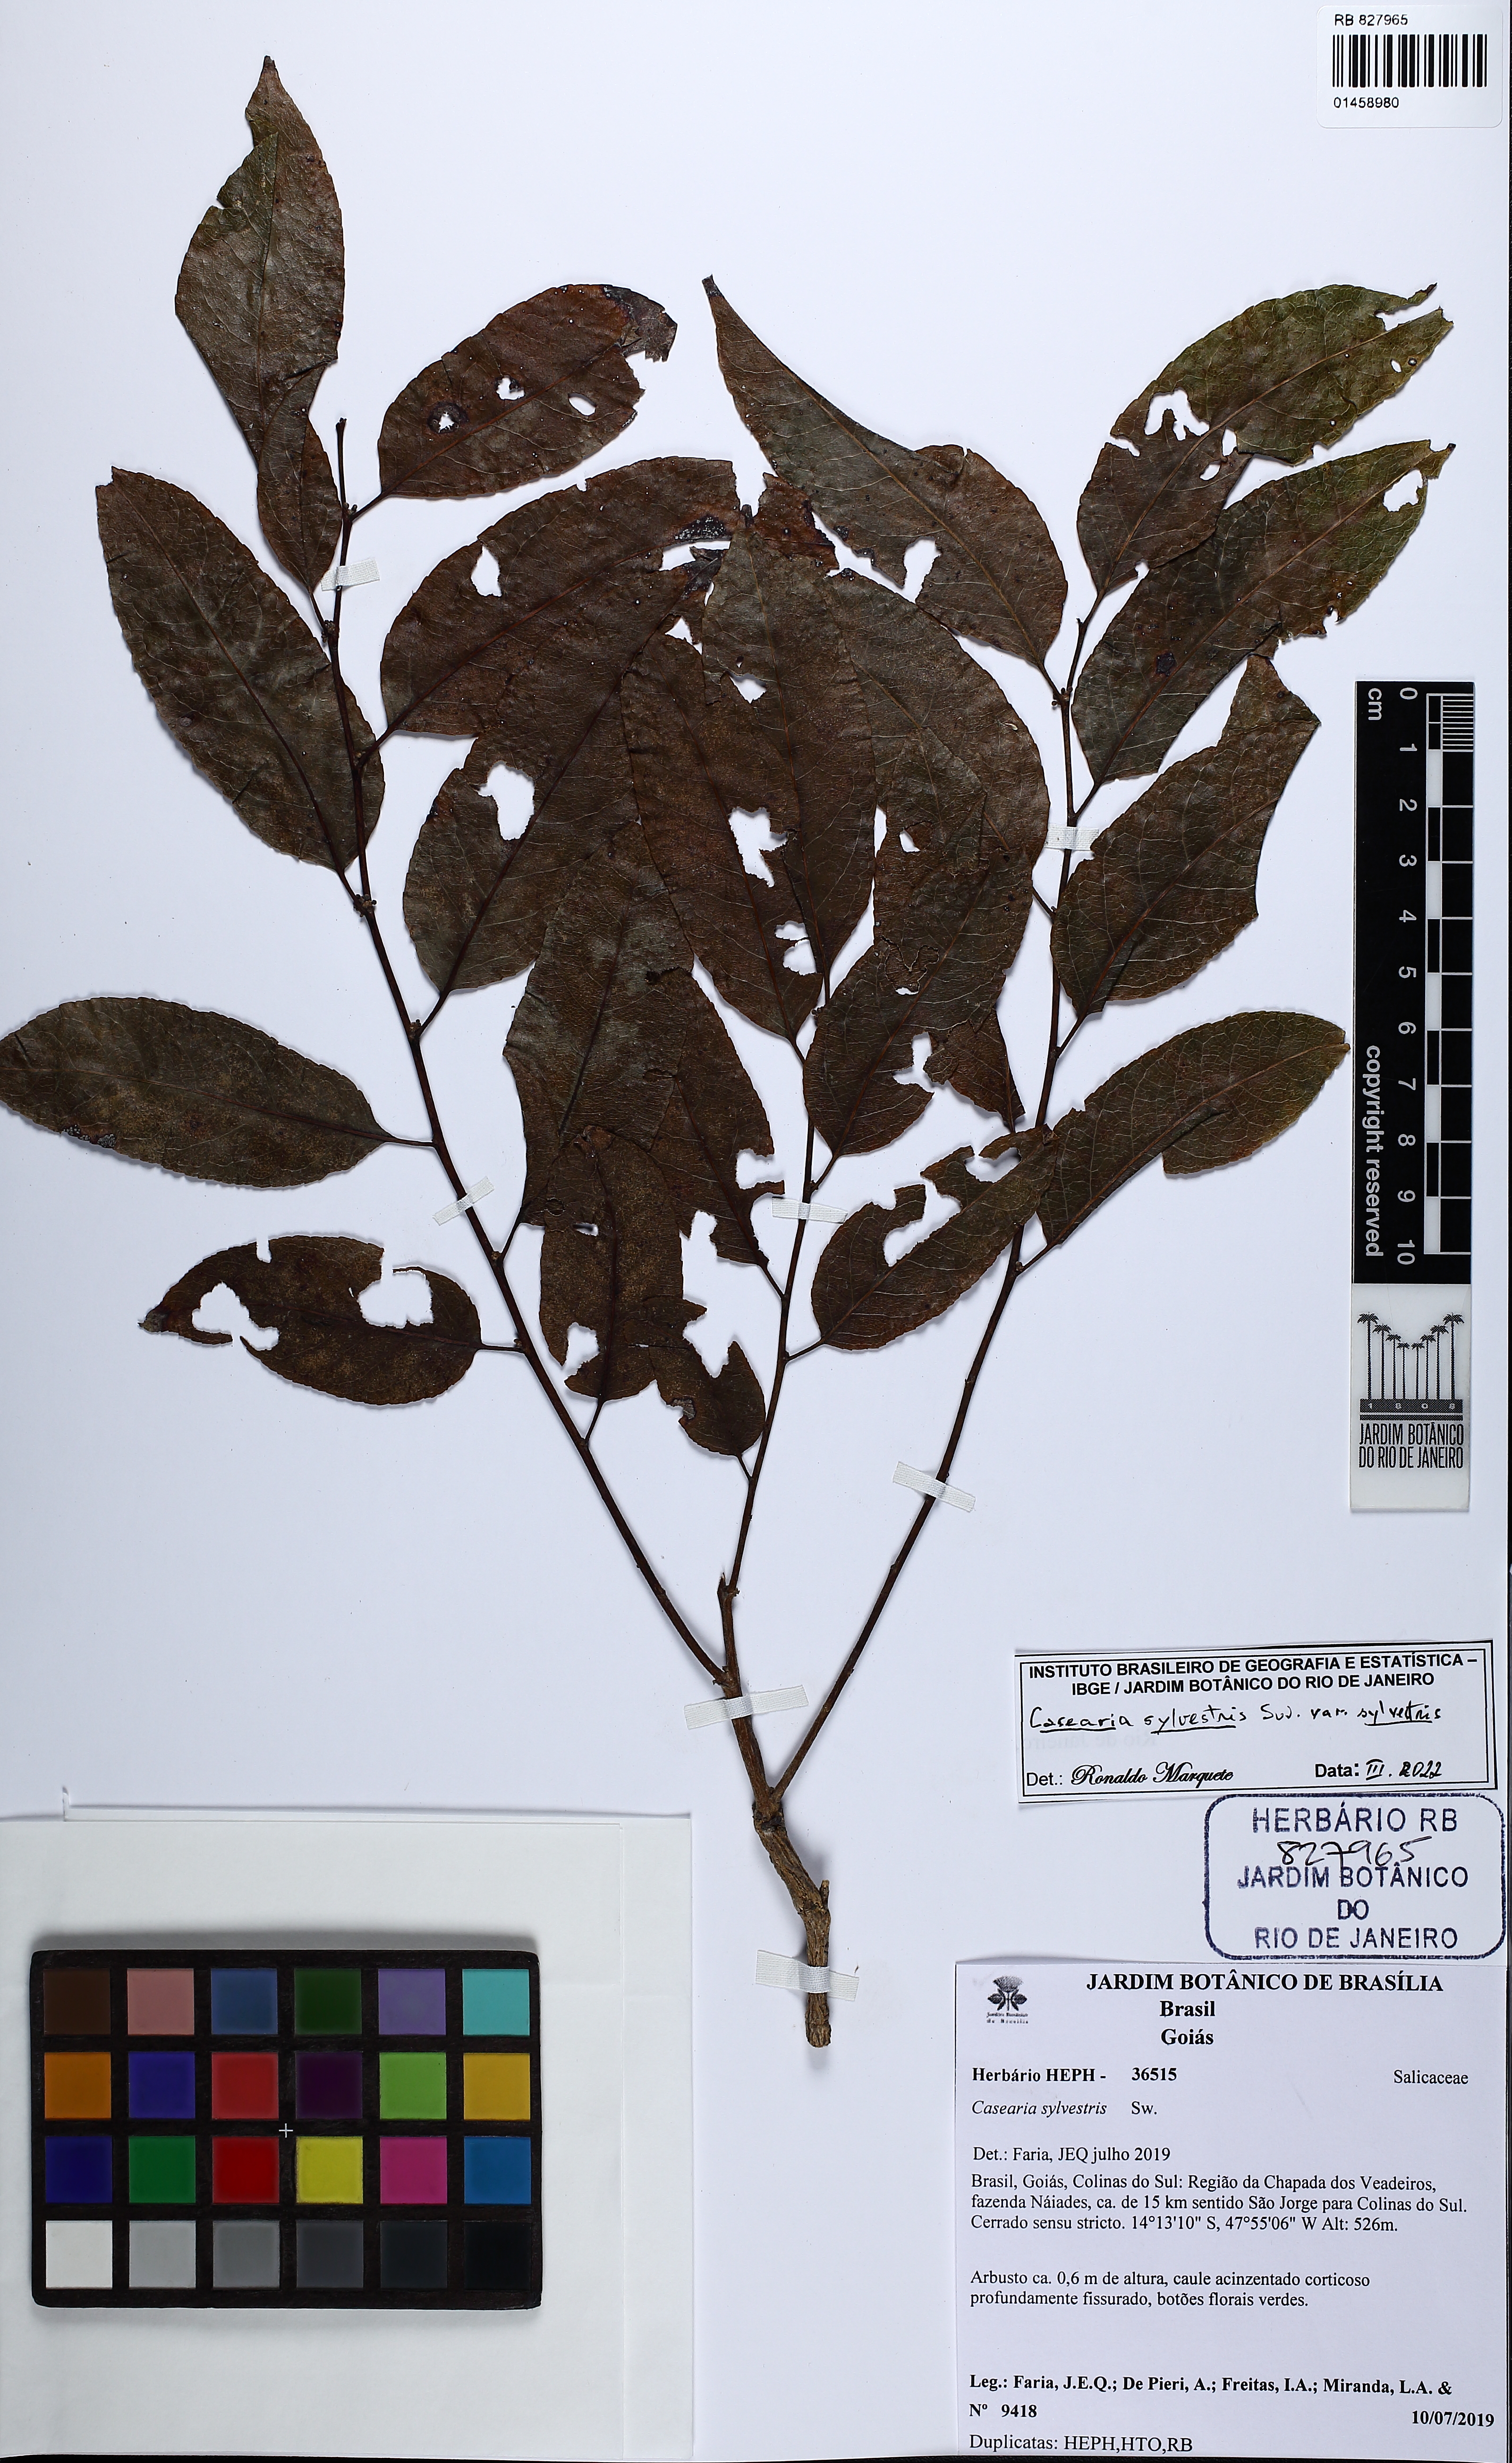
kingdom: Plantae
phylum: Tracheophyta
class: Magnoliopsida
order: Malpighiales
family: Salicaceae
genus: Casearia
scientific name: Casearia sylvestris
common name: Wild sage
